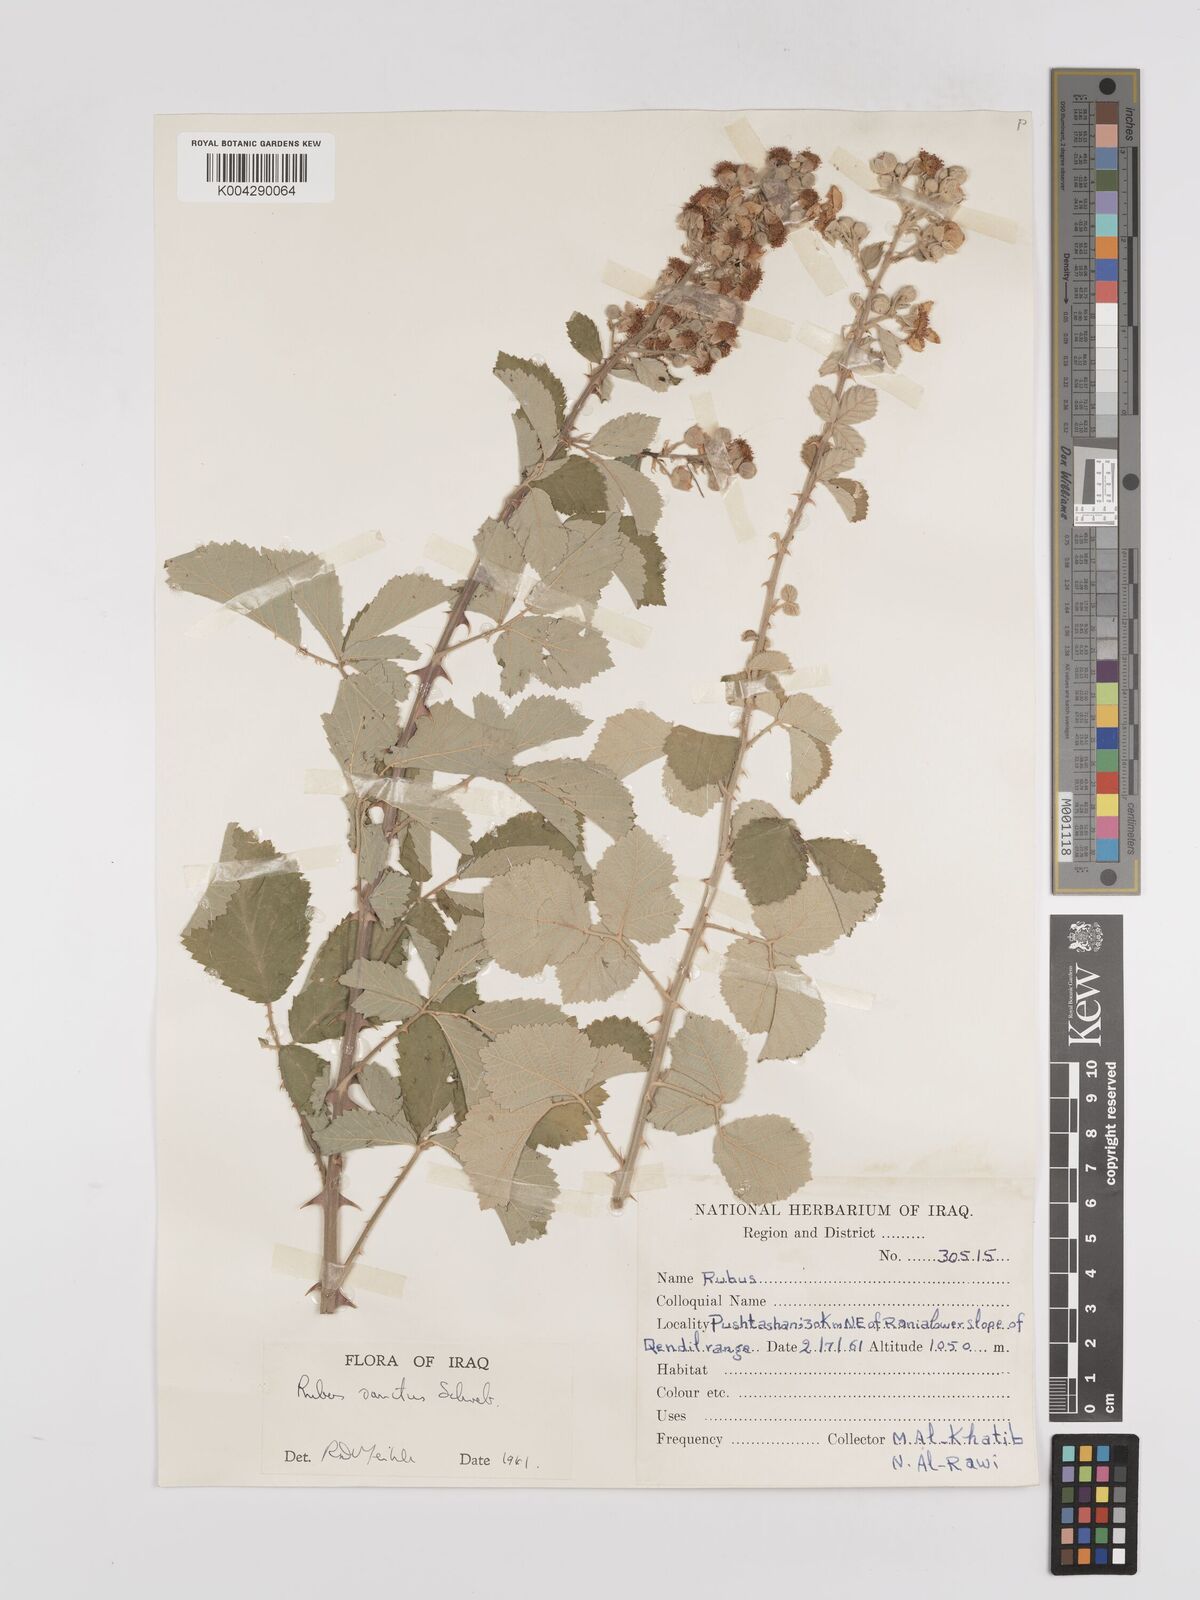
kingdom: Plantae
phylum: Tracheophyta
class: Magnoliopsida
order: Rosales
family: Rosaceae
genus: Rubus
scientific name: Rubus sanctus
